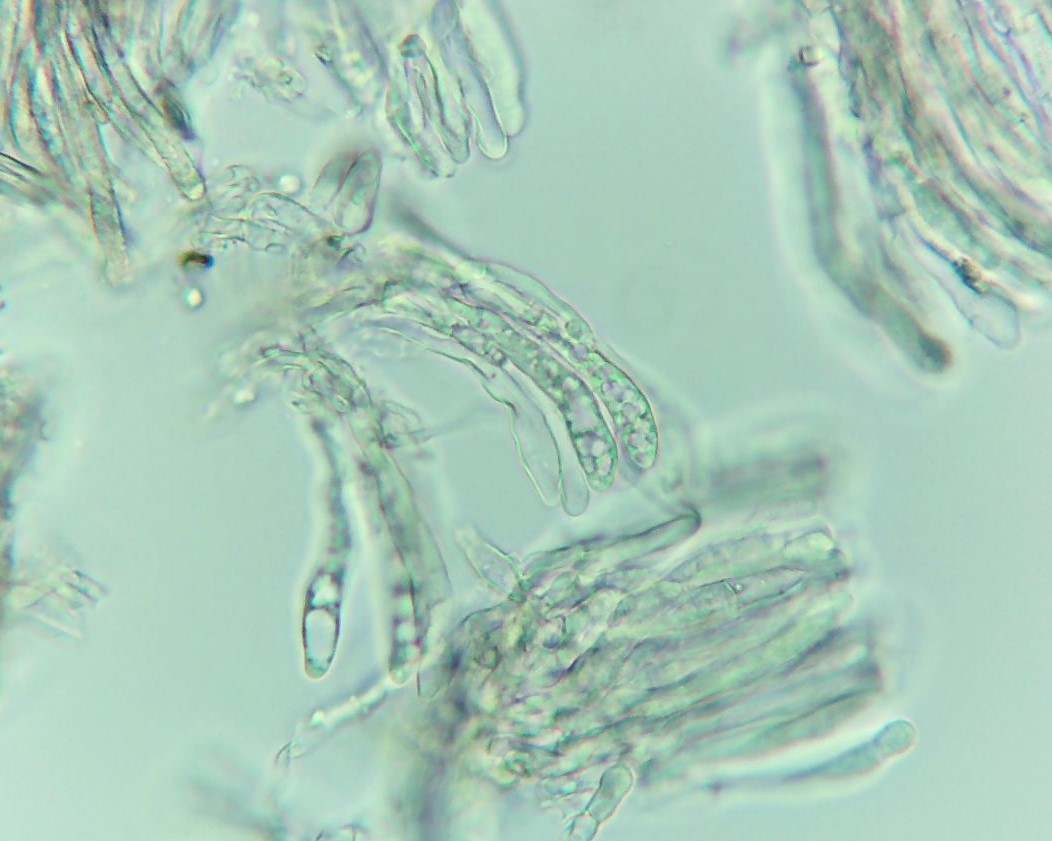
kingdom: Fungi
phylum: Basidiomycota
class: Agaricomycetes
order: Agaricales
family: Cyphellaceae
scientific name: Cyphellaceae
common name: hængeskåle
